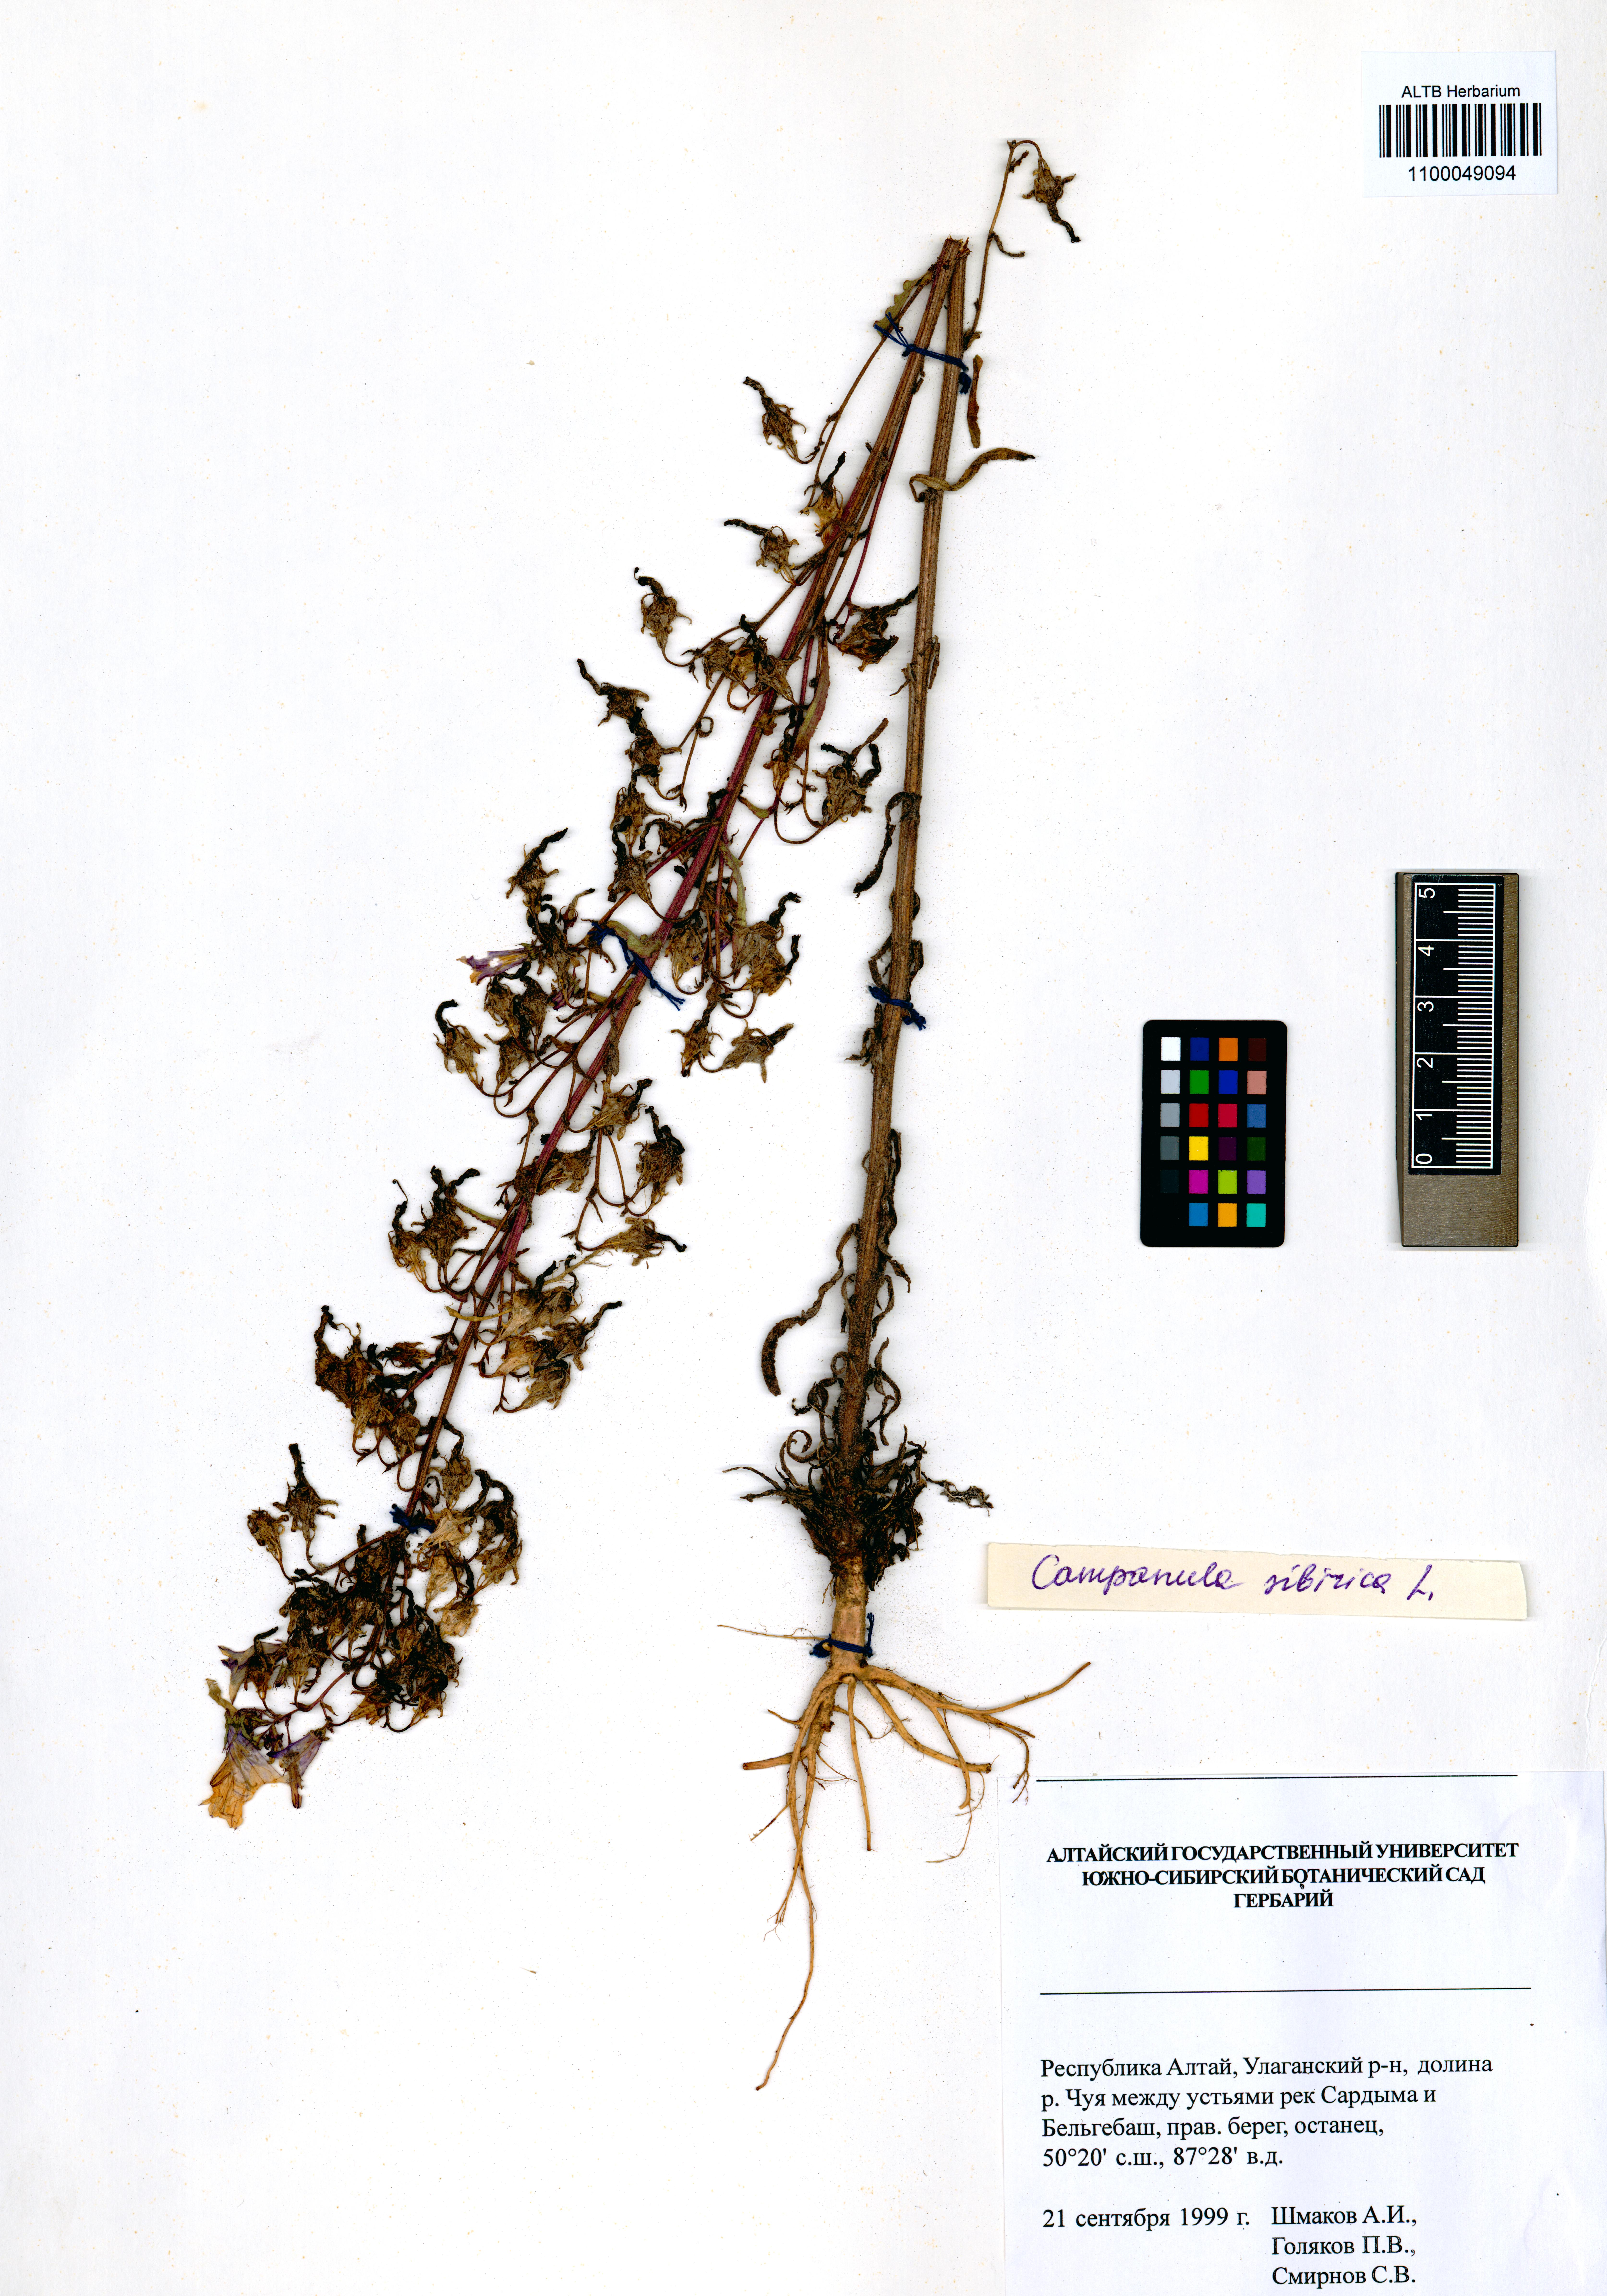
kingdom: Plantae
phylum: Tracheophyta
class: Magnoliopsida
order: Asterales
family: Campanulaceae
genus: Campanula
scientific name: Campanula sibirica
